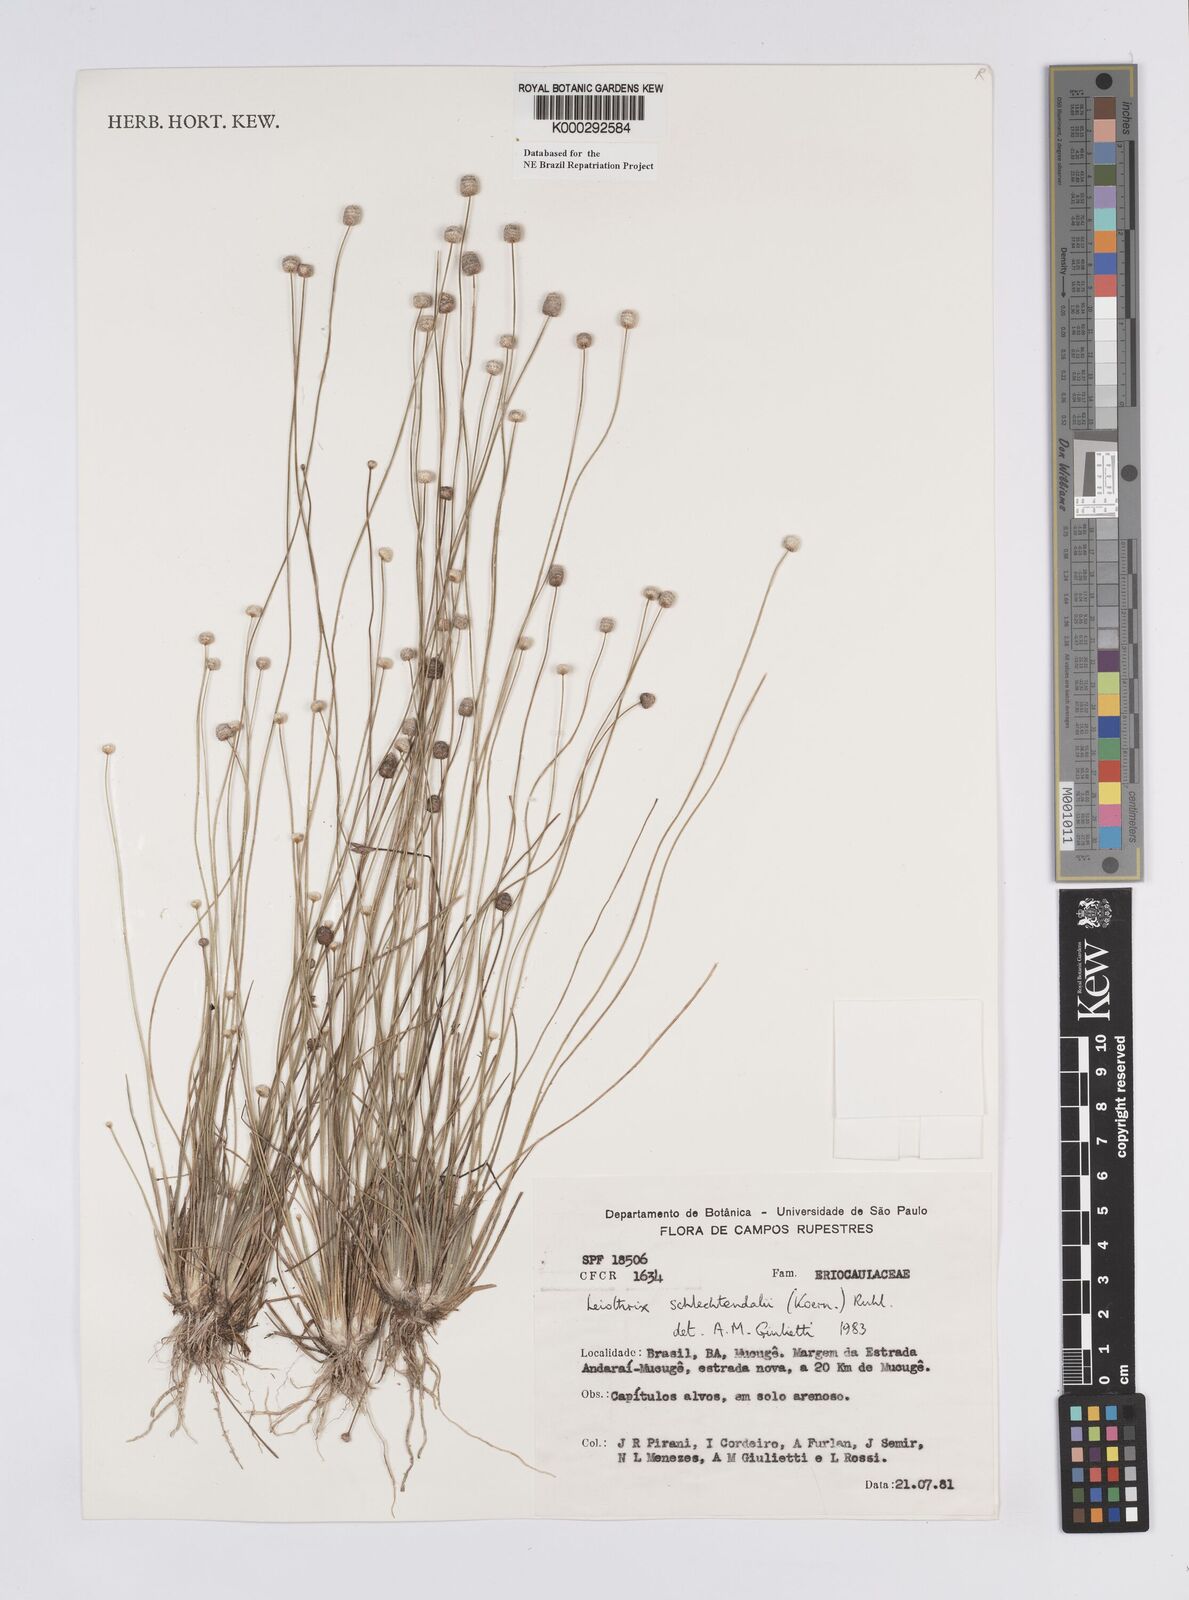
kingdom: Plantae
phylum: Tracheophyta
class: Liliopsida
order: Poales
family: Eriocaulaceae
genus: Leiothrix
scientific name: Leiothrix schlechtendalii
